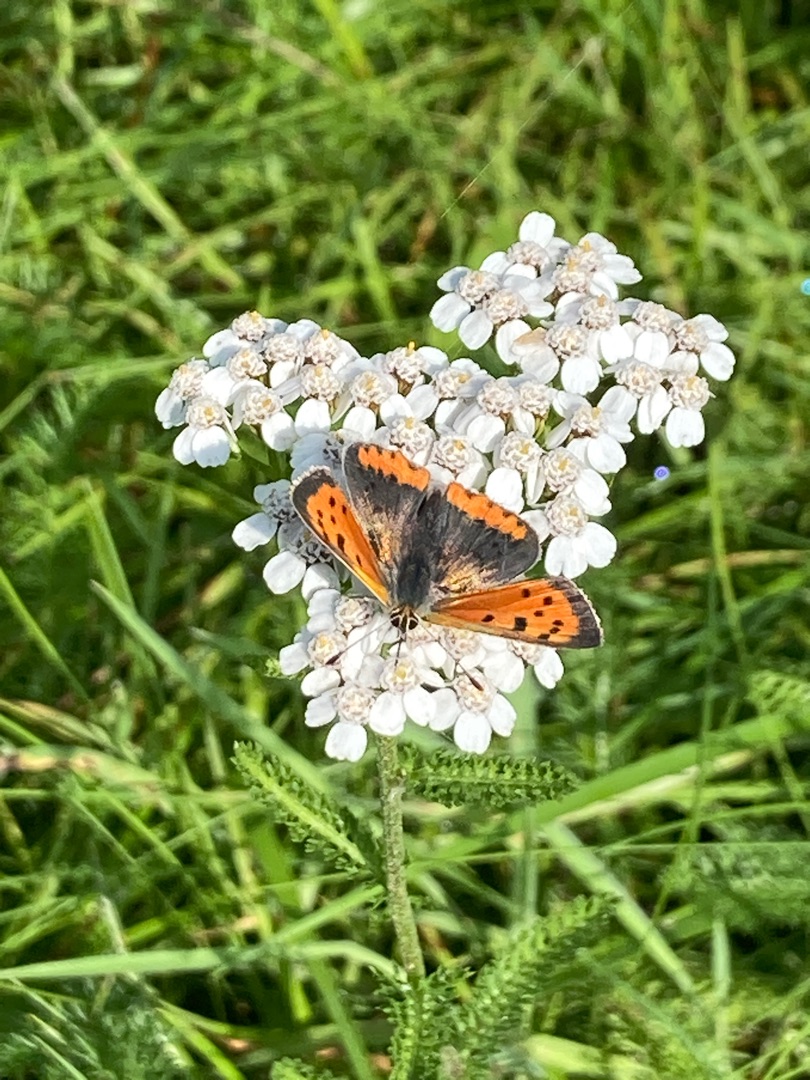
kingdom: Animalia
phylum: Arthropoda
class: Insecta
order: Lepidoptera
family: Lycaenidae
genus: Lycaena
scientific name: Lycaena phlaeas
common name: Lille ildfugl
